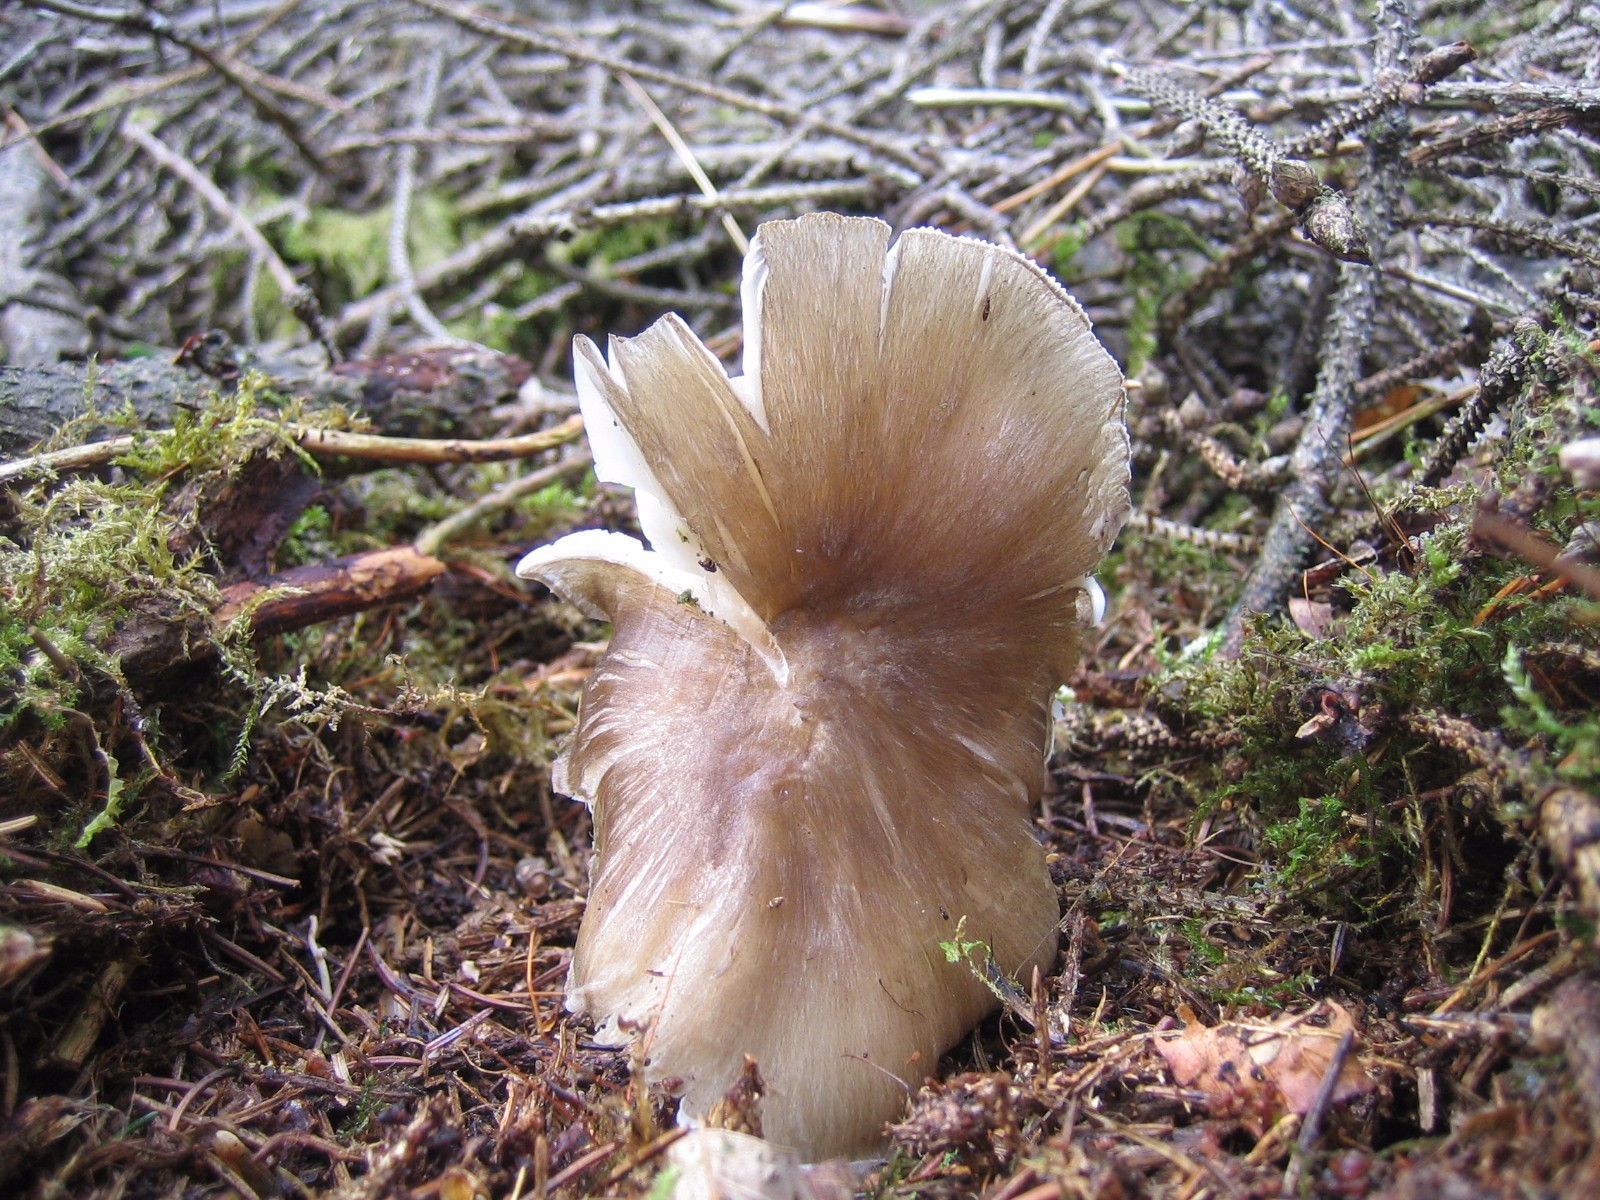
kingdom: Fungi
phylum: Basidiomycota
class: Agaricomycetes
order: Agaricales
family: Tricholomataceae
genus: Megacollybia
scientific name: Megacollybia platyphylla
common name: bredbladet væbnerhat
